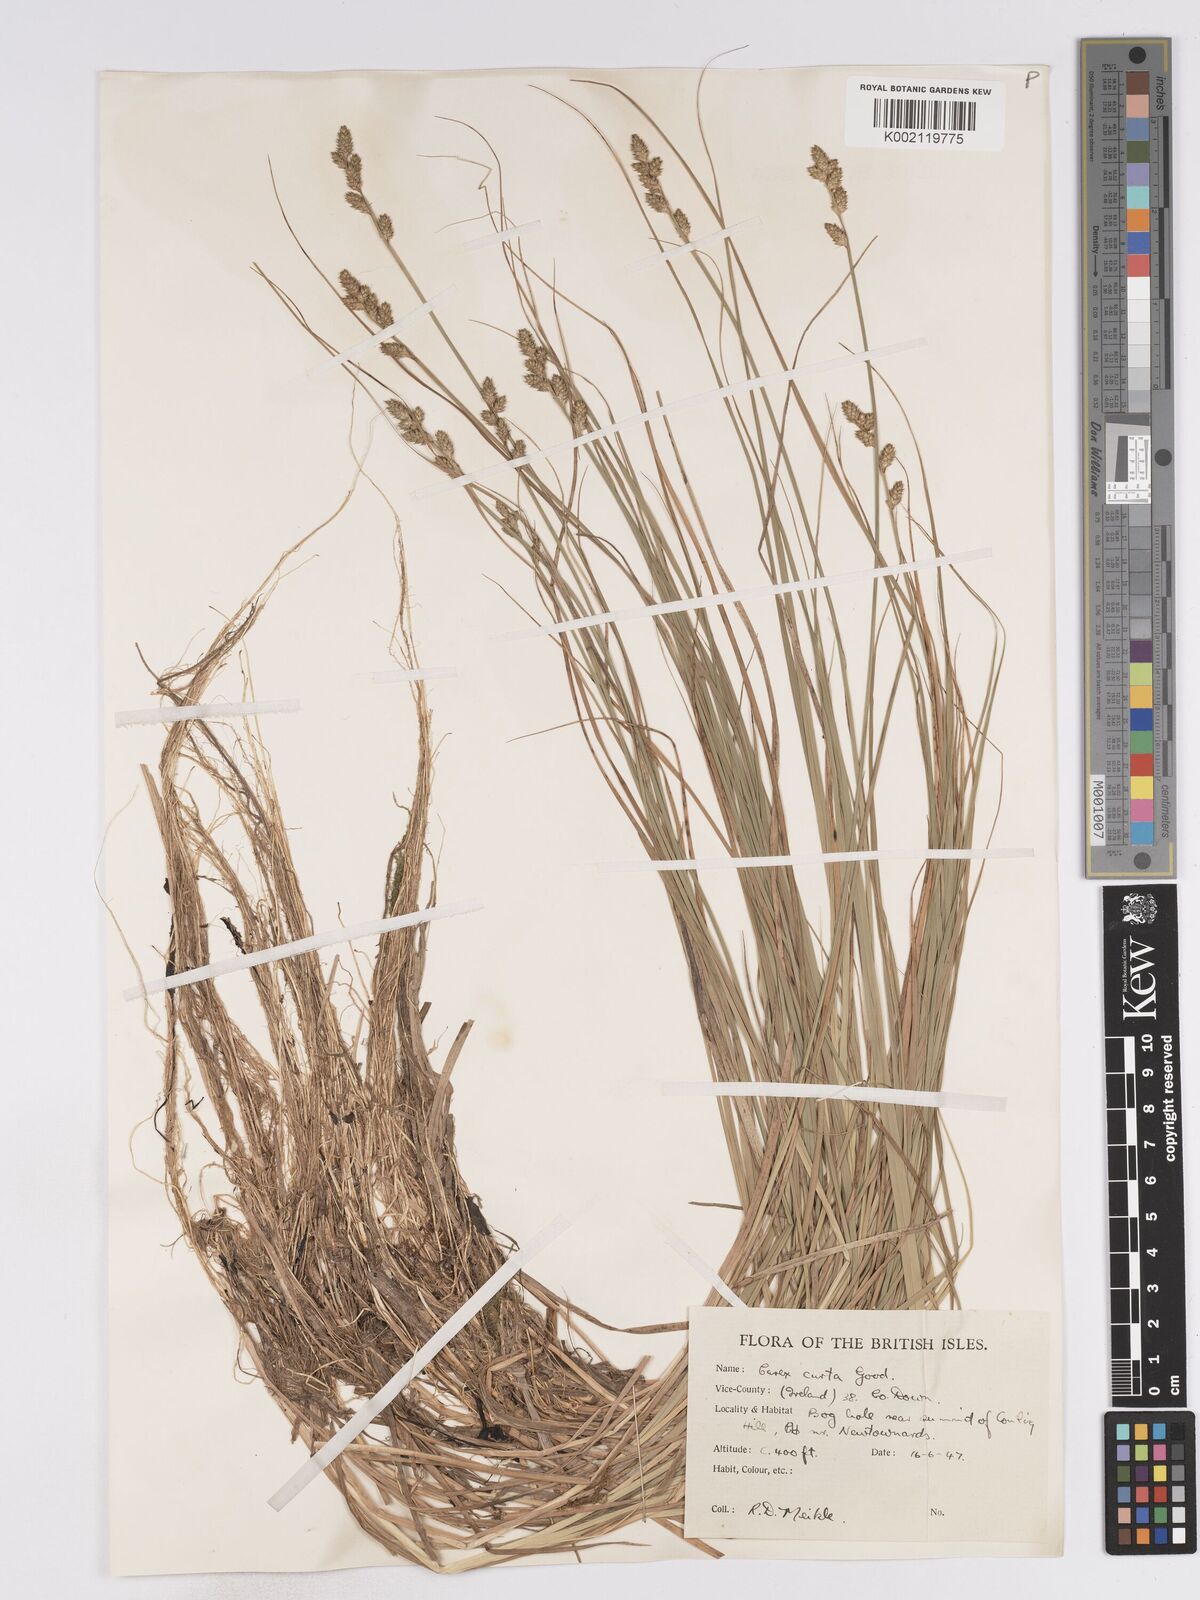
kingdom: Plantae
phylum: Tracheophyta
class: Liliopsida
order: Poales
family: Cyperaceae
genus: Carex
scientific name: Carex curta
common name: White sedge
